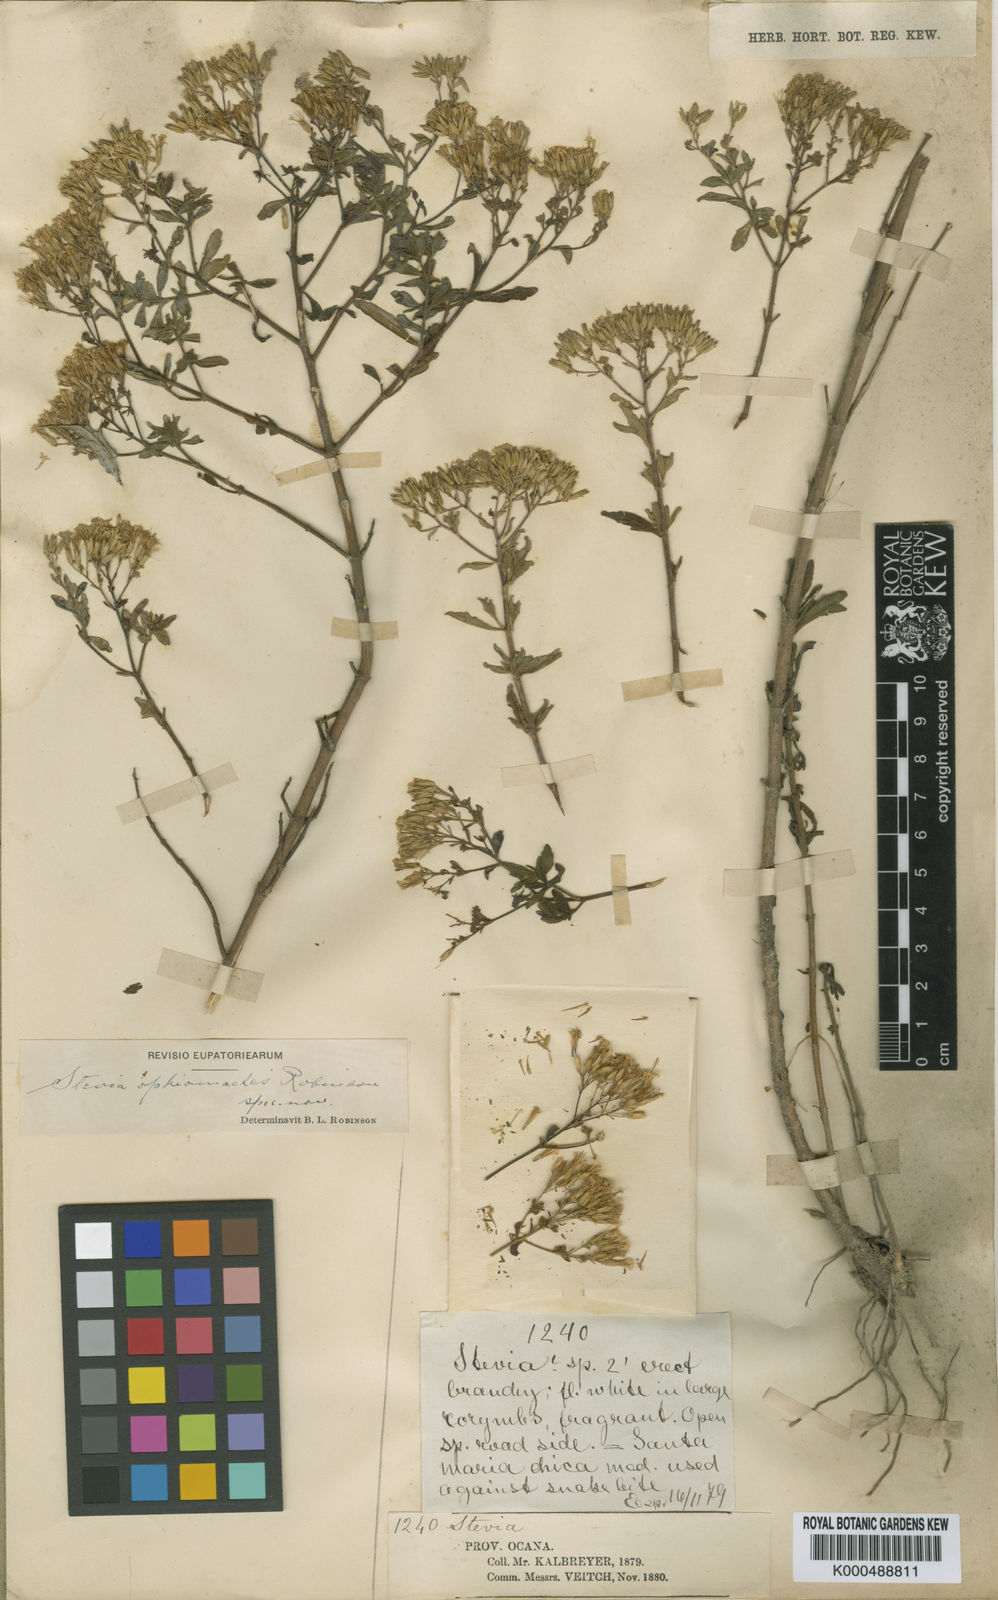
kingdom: Plantae
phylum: Tracheophyta
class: Magnoliopsida
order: Asterales
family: Asteraceae
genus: Stevia
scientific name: Stevia ophiomaches
